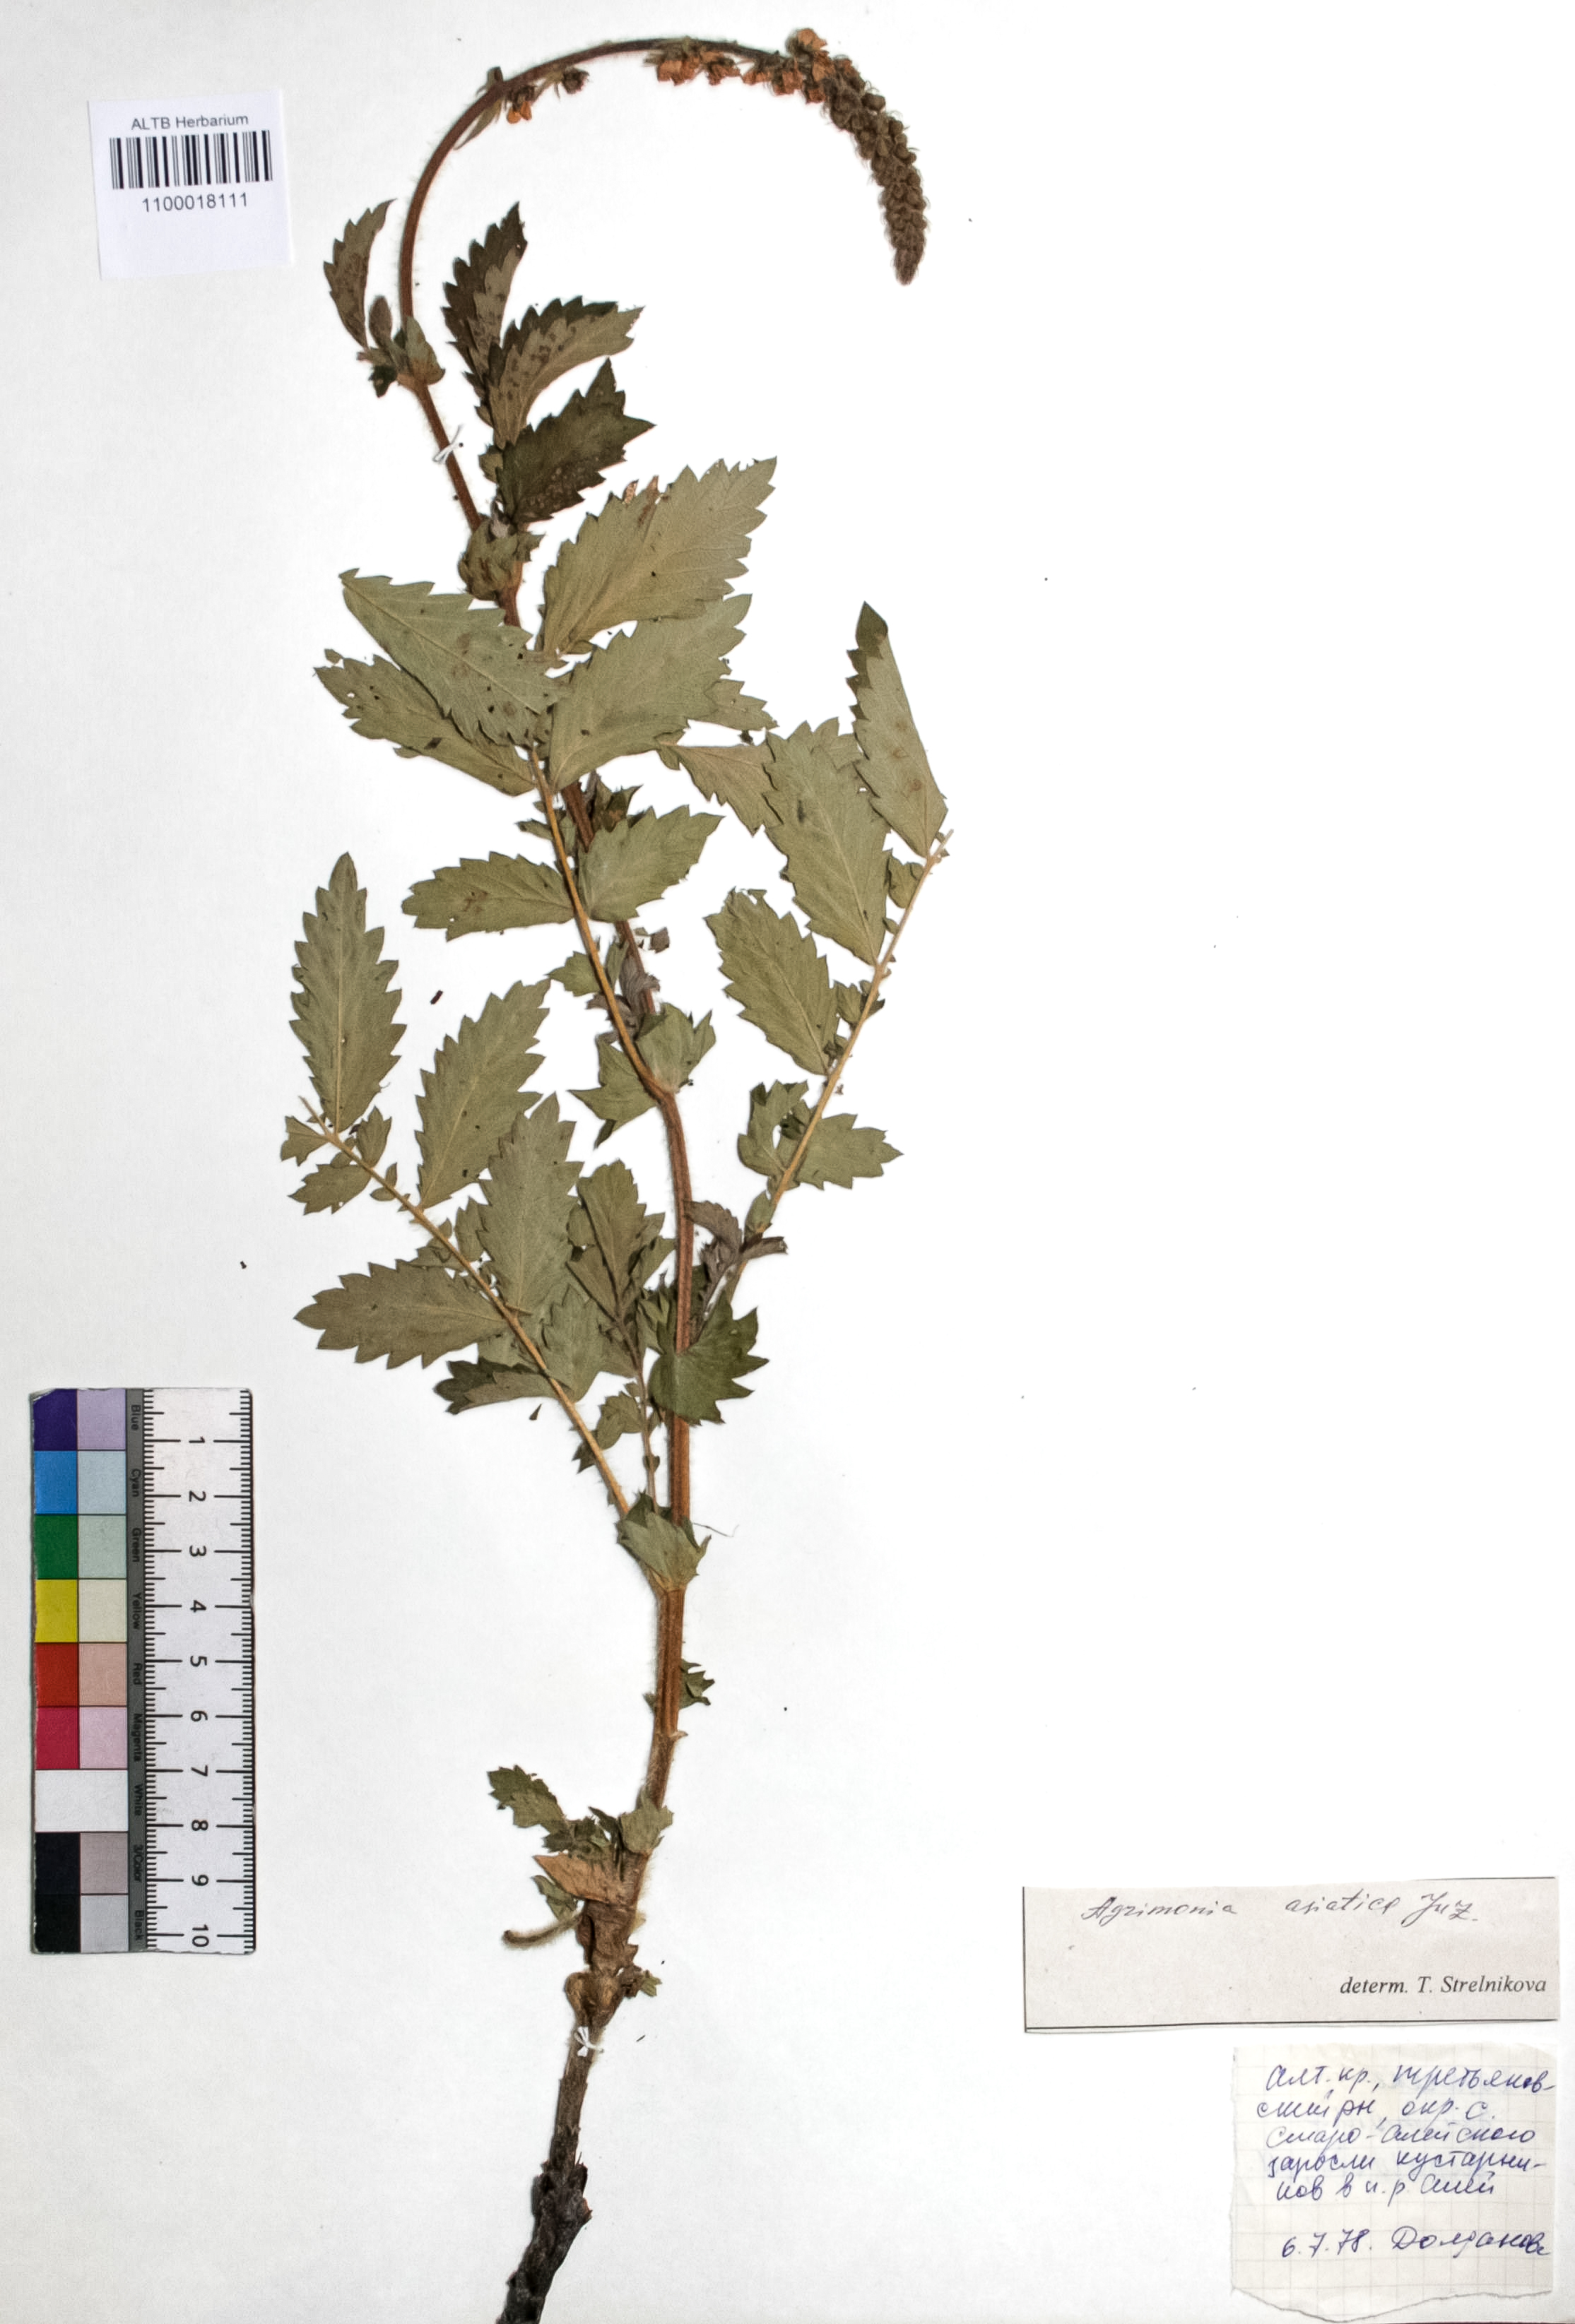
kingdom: Plantae
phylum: Tracheophyta
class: Magnoliopsida
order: Rosales
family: Rosaceae
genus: Agrimonia
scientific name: Agrimonia eupatoria
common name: Agrimony
